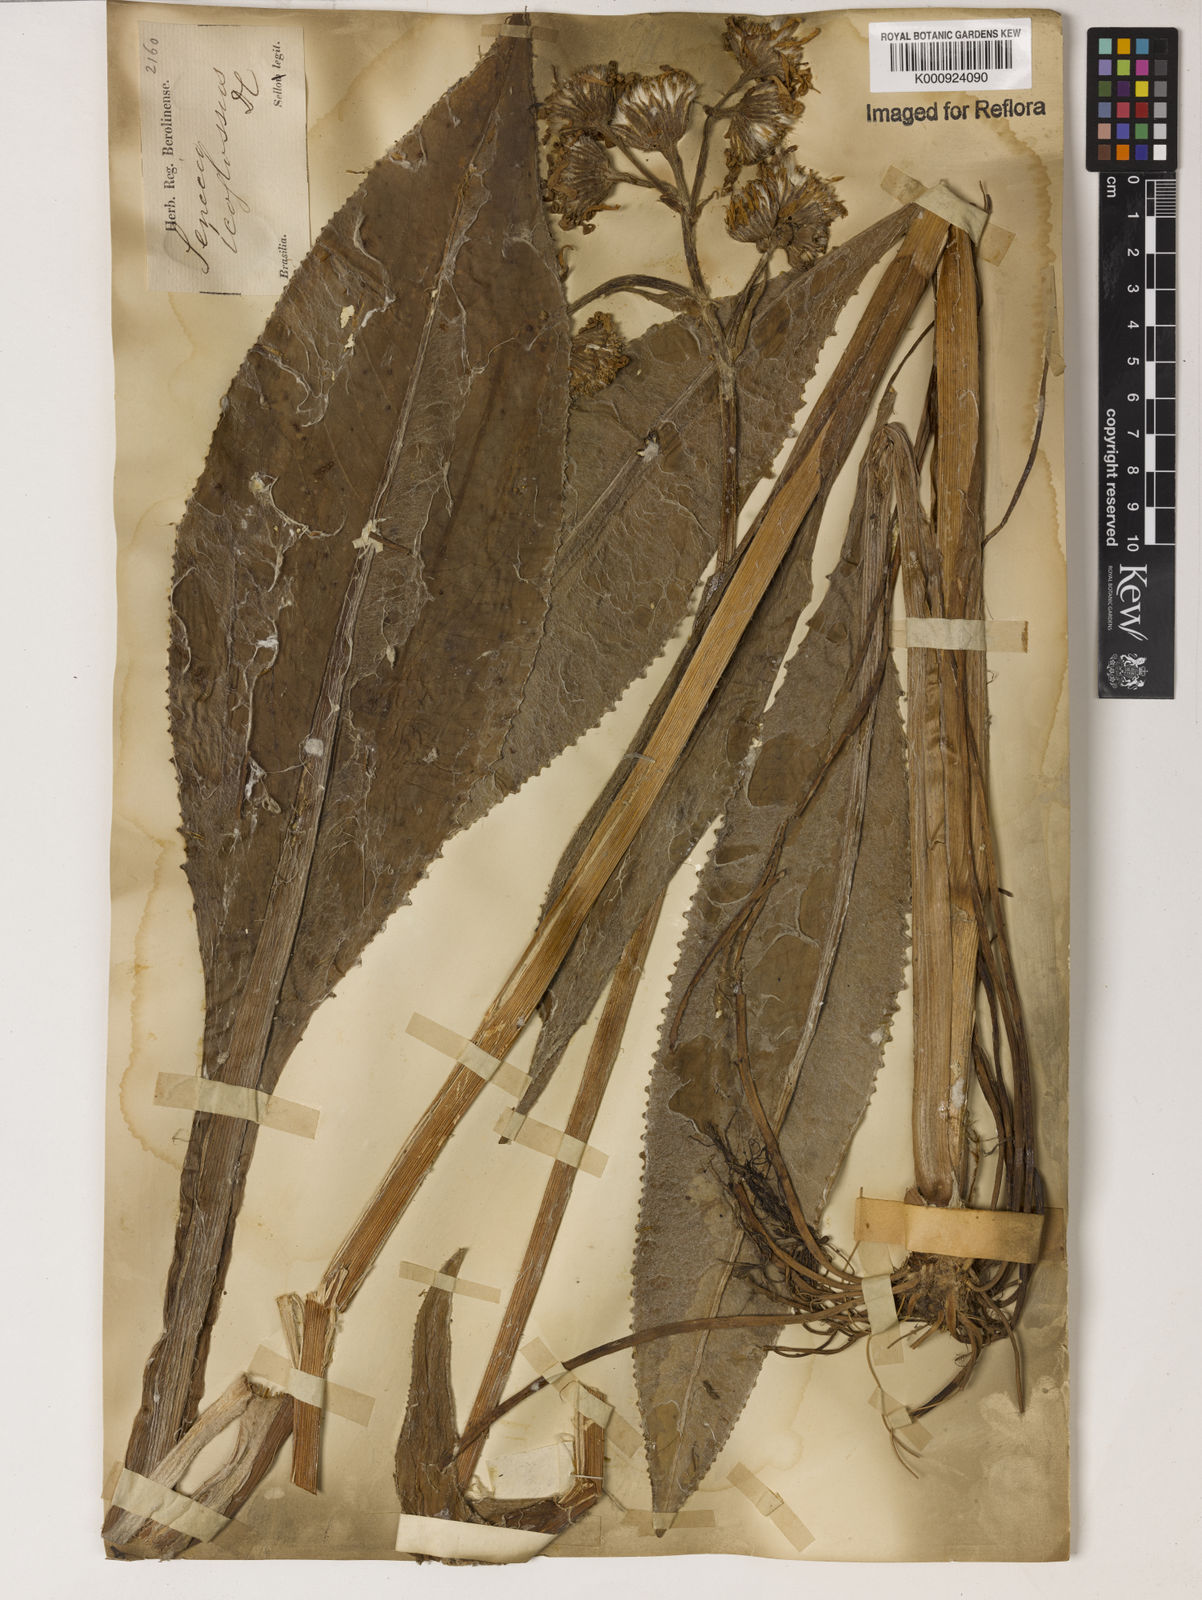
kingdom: Plantae
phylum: Tracheophyta
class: Magnoliopsida
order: Asterales
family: Asteraceae
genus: Senecio
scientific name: Senecio icoglossus
